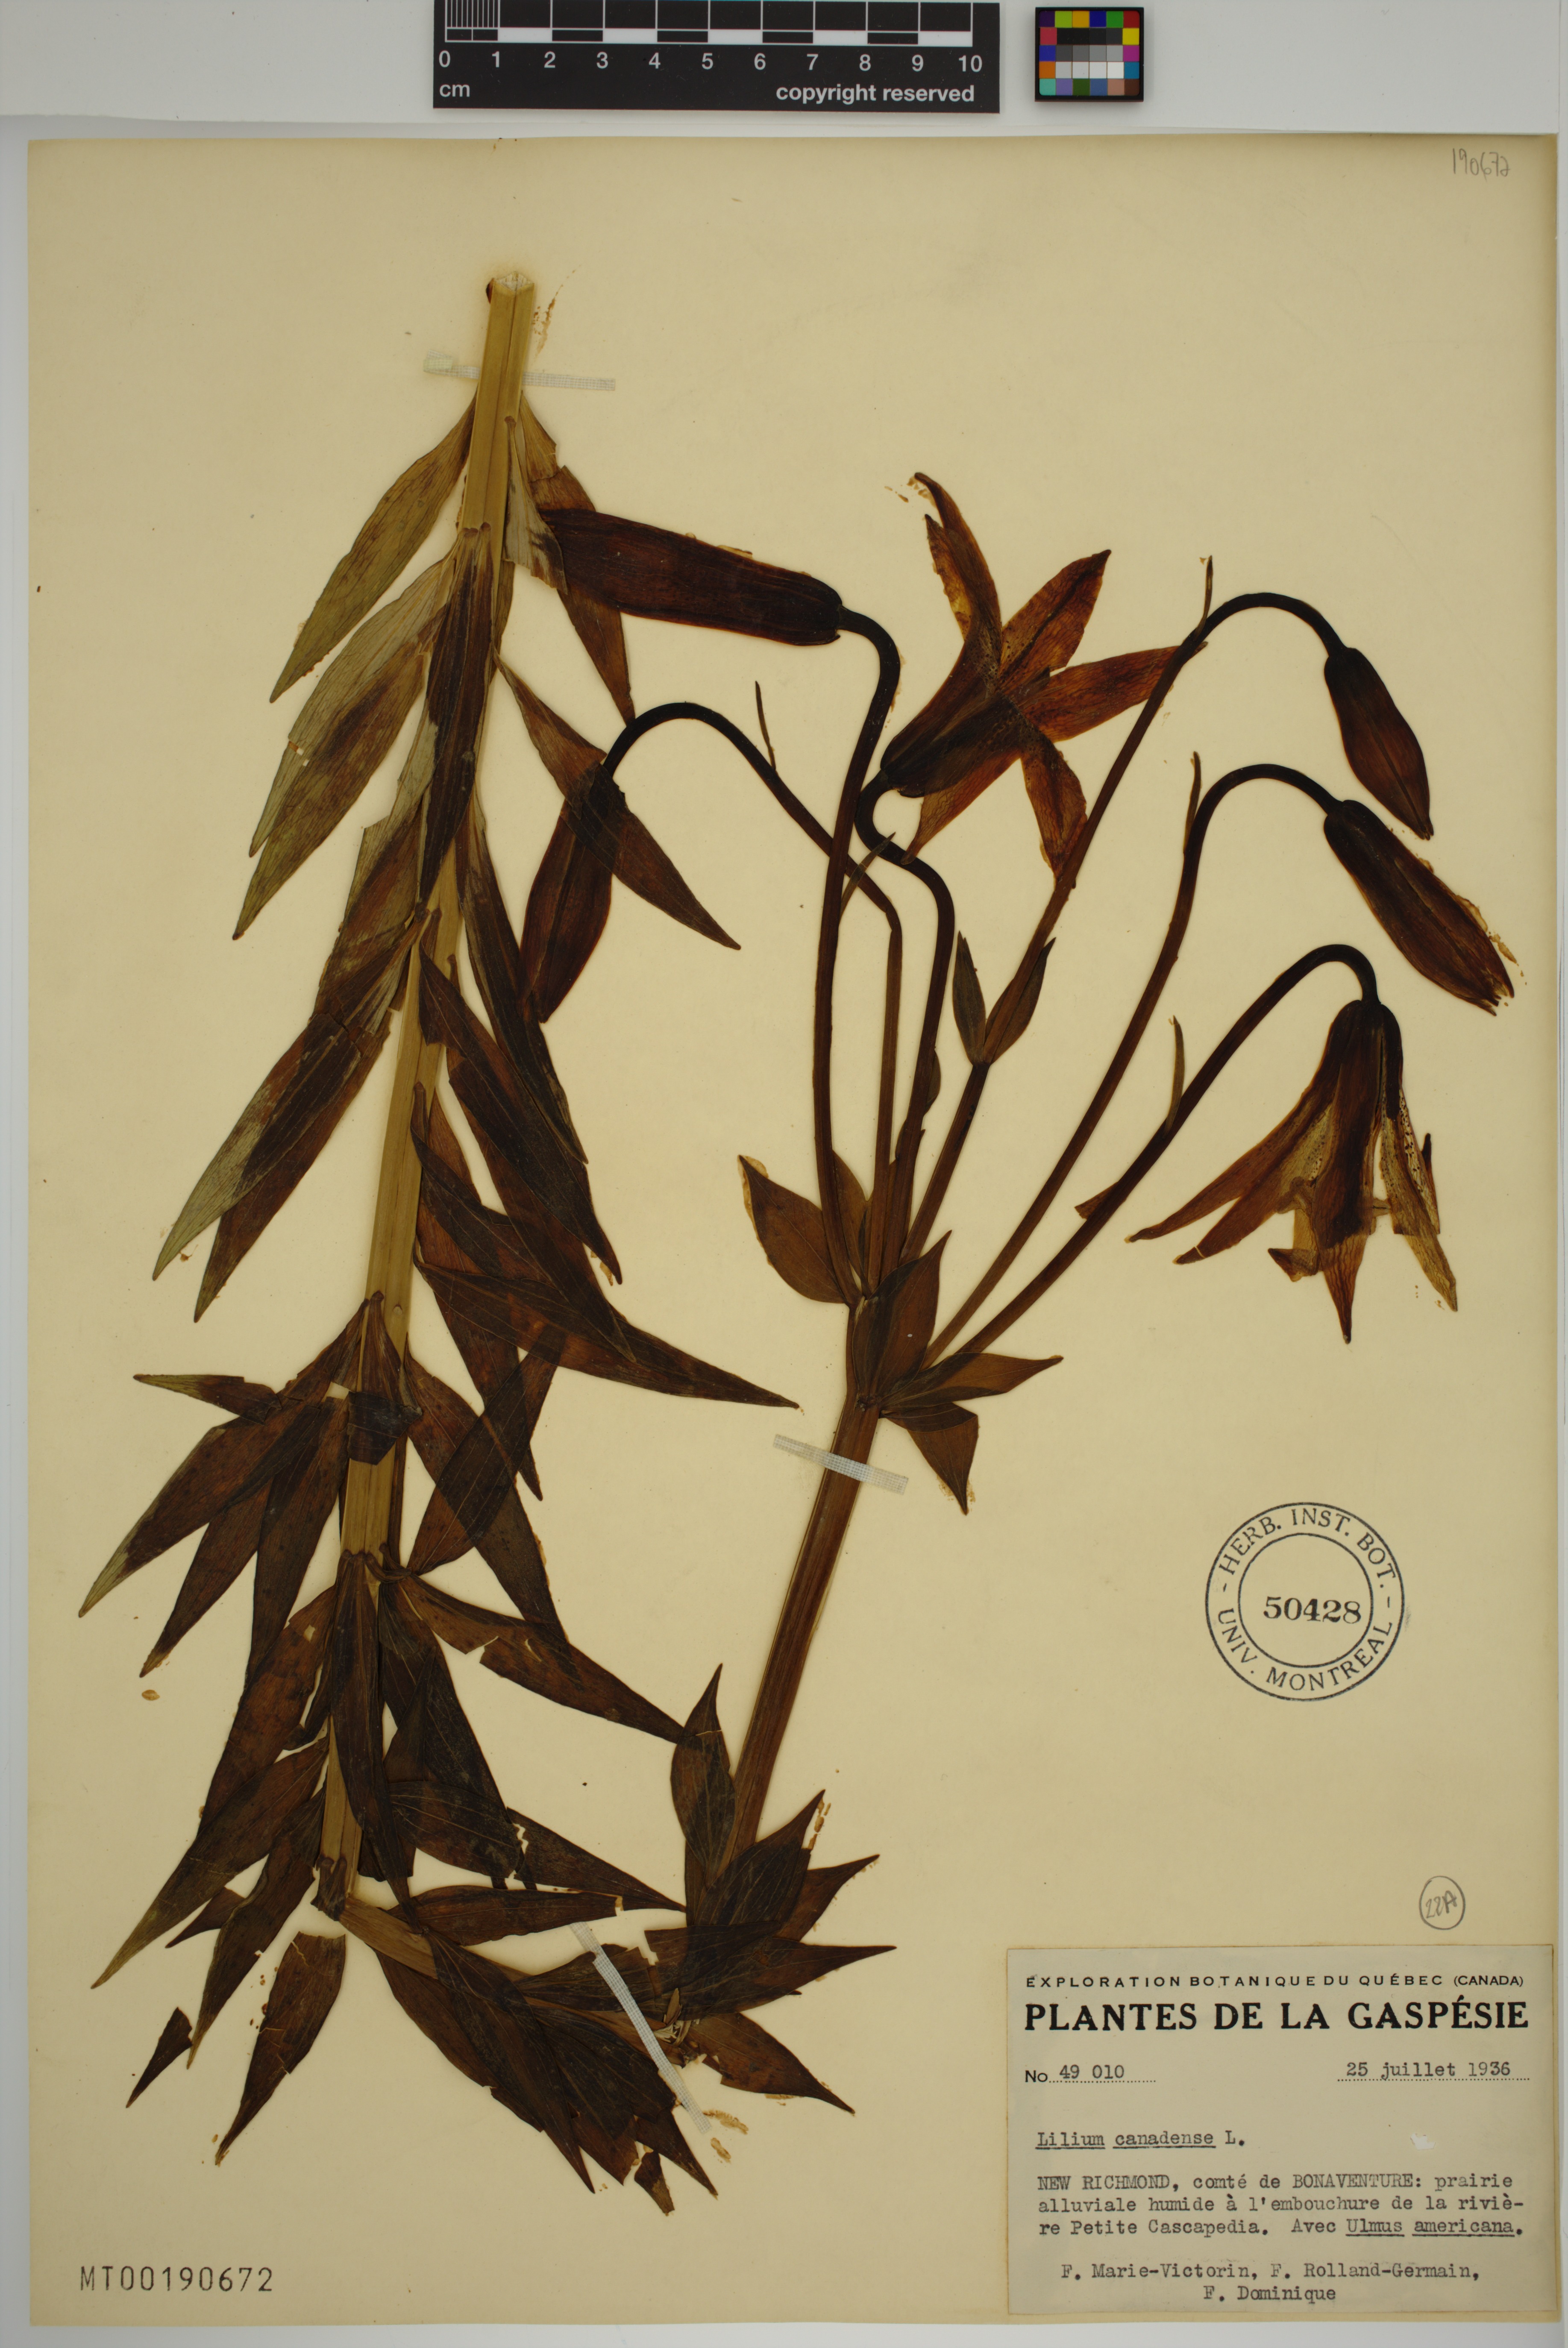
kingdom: Plantae
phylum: Tracheophyta
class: Liliopsida
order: Liliales
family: Liliaceae
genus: Lilium
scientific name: Lilium canadense
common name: Canada lily
